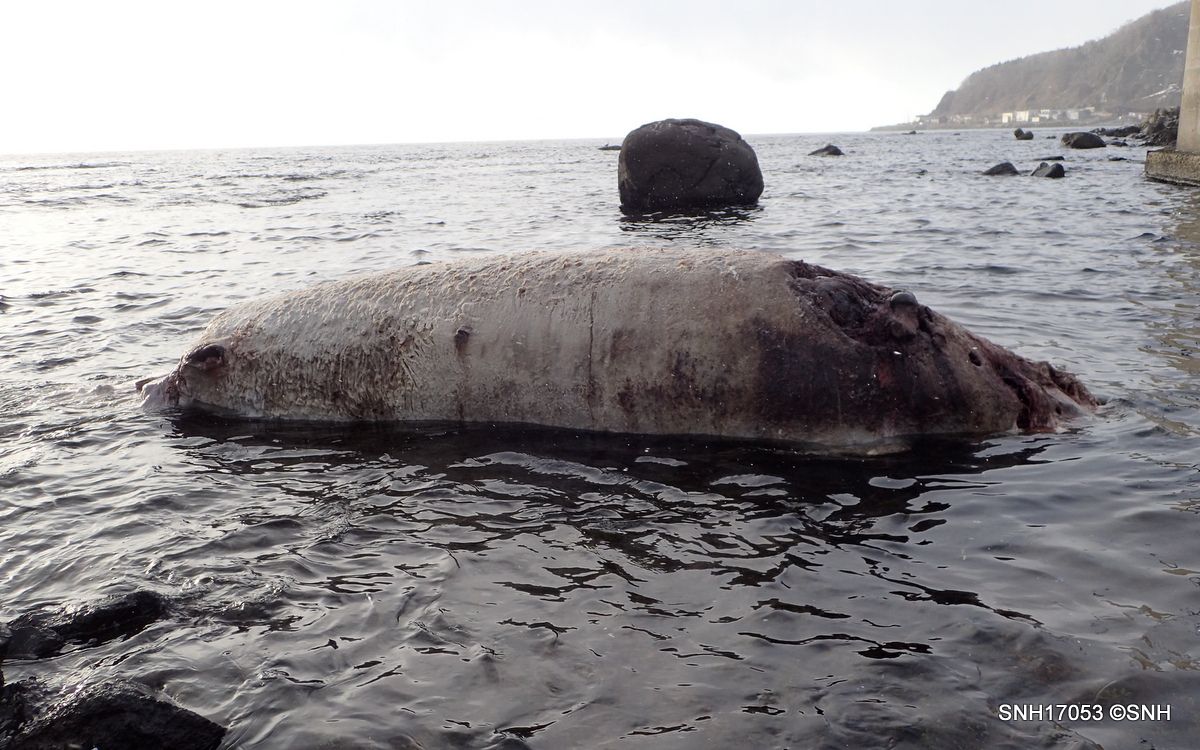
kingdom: Animalia
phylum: Chordata
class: Mammalia
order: Cetacea
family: Hyperoodontidae
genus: Berardius
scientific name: Berardius minimus
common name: Sato's beaked whale
